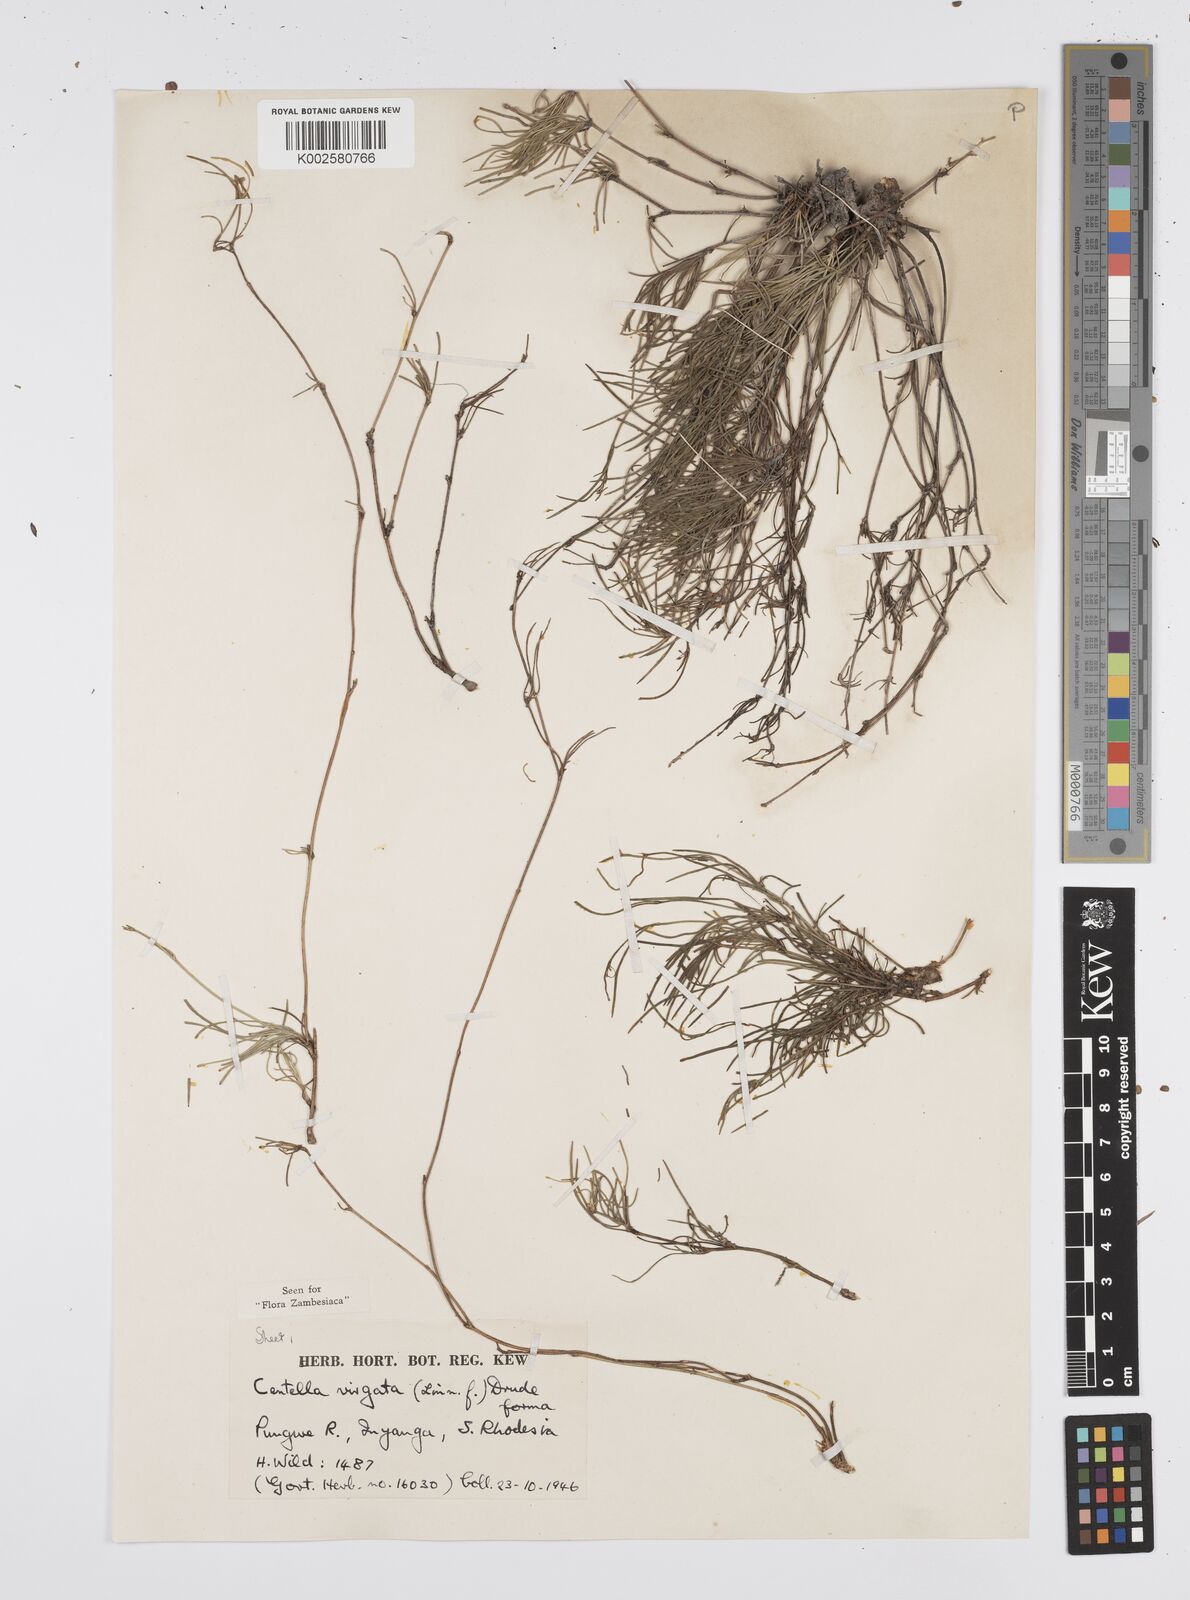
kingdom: Plantae
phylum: Tracheophyta
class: Magnoliopsida
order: Apiales
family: Apiaceae
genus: Centella
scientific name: Centella stenophylla
